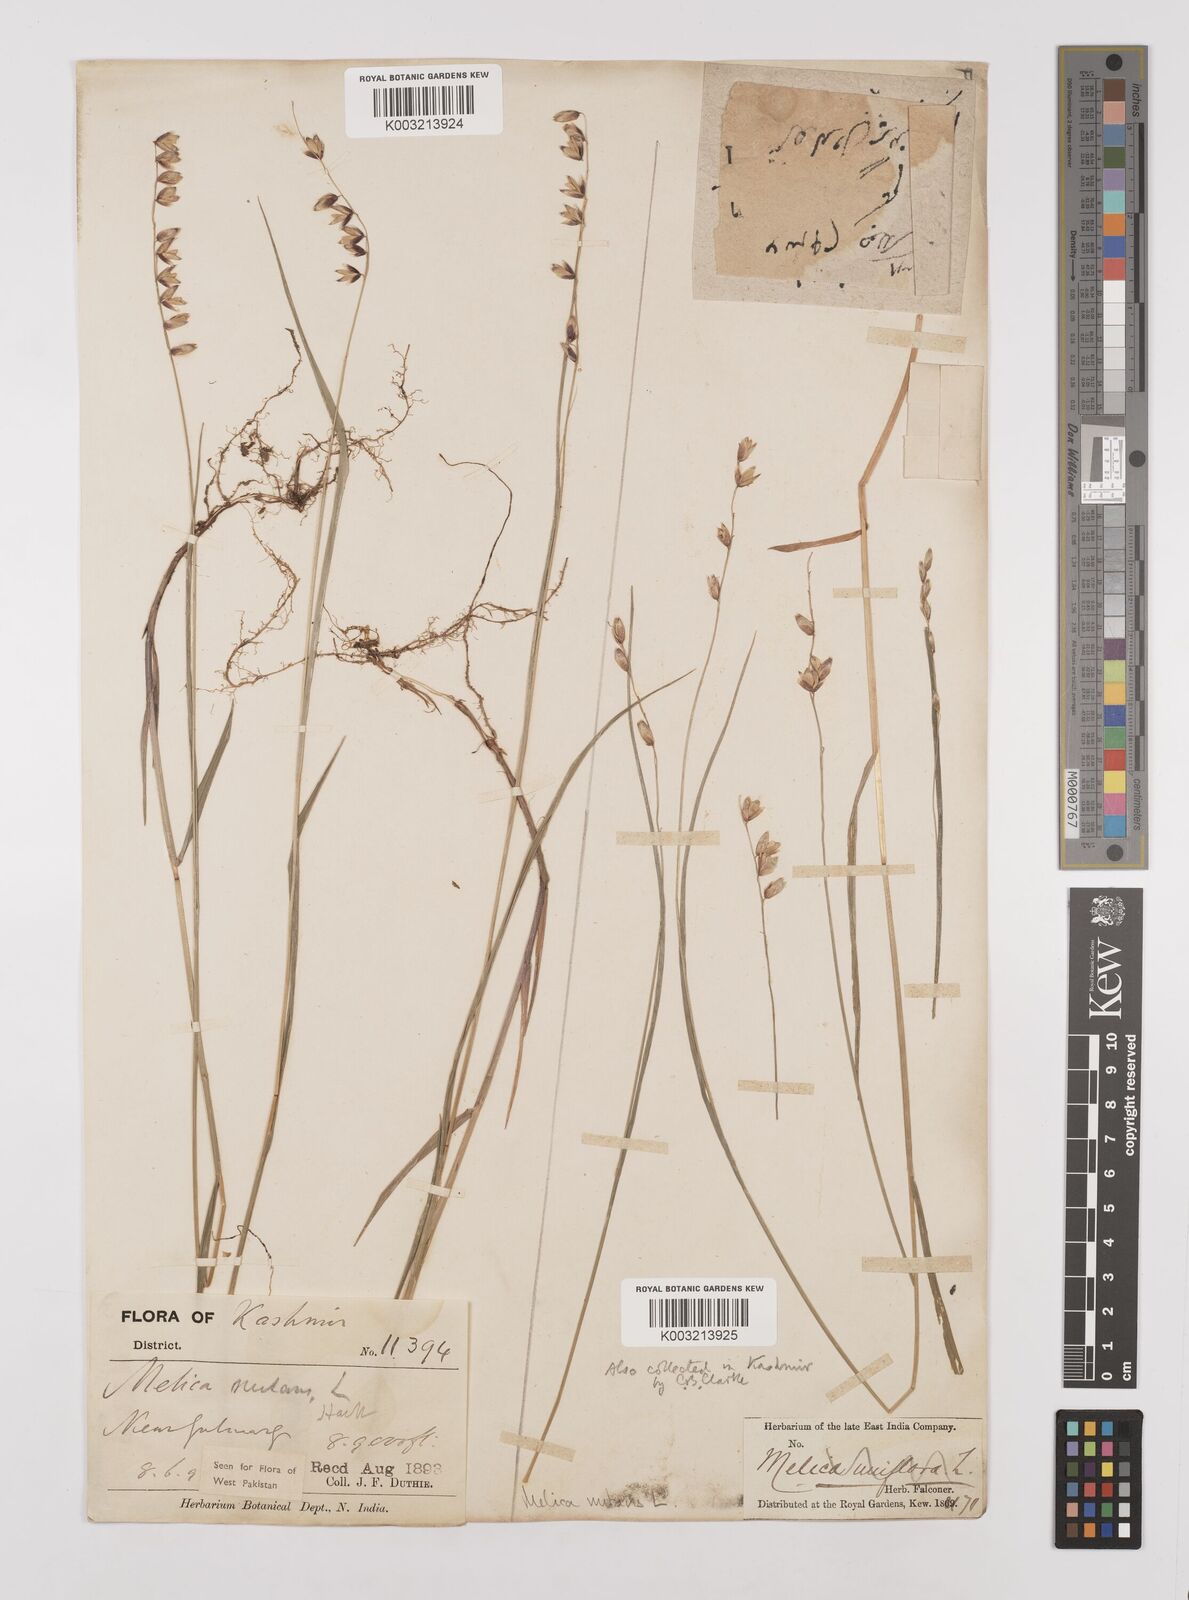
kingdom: Plantae
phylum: Tracheophyta
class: Liliopsida
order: Poales
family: Poaceae
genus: Melica
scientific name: Melica nutans
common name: Mountain melick
